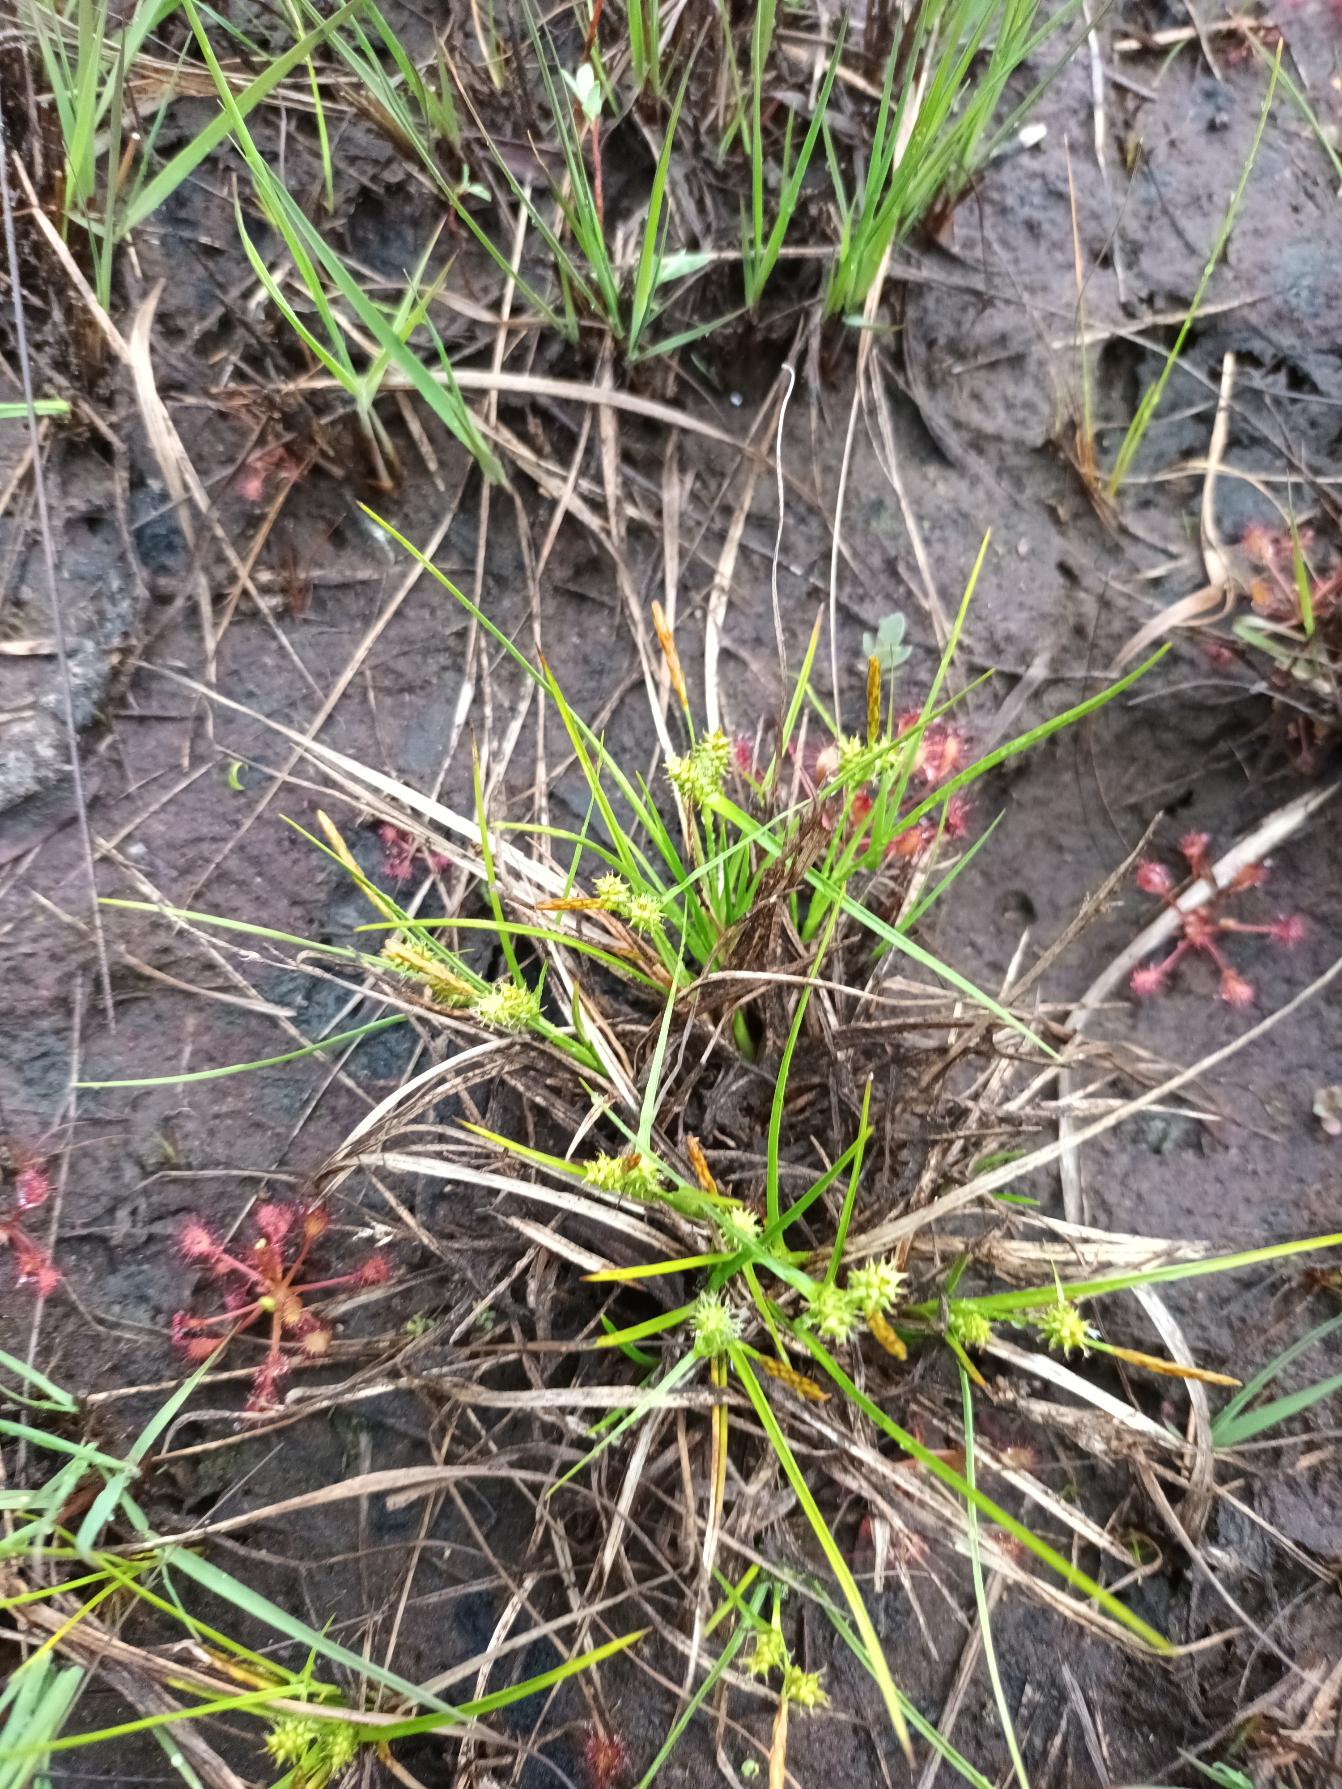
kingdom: Plantae
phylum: Tracheophyta
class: Liliopsida
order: Poales
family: Cyperaceae
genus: Carex
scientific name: Carex oederi
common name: Dværg-star
